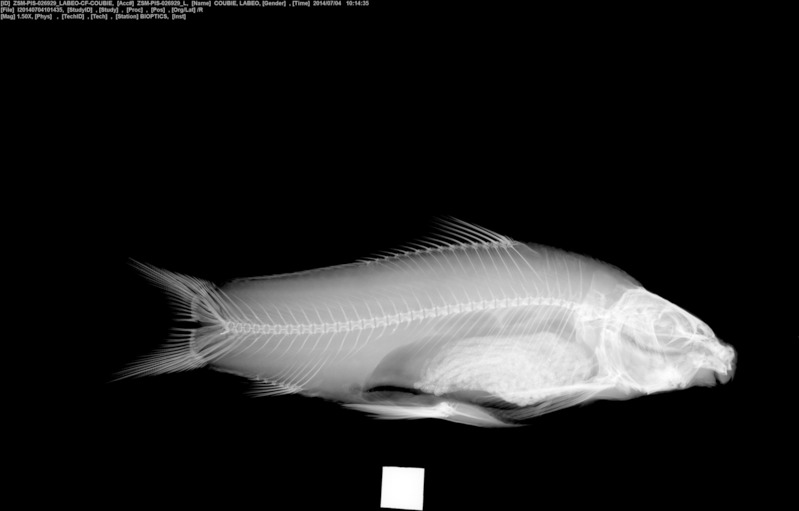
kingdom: Animalia
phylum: Chordata
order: Cypriniformes
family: Cyprinidae
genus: Labeo
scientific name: Labeo coubie
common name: African carp
